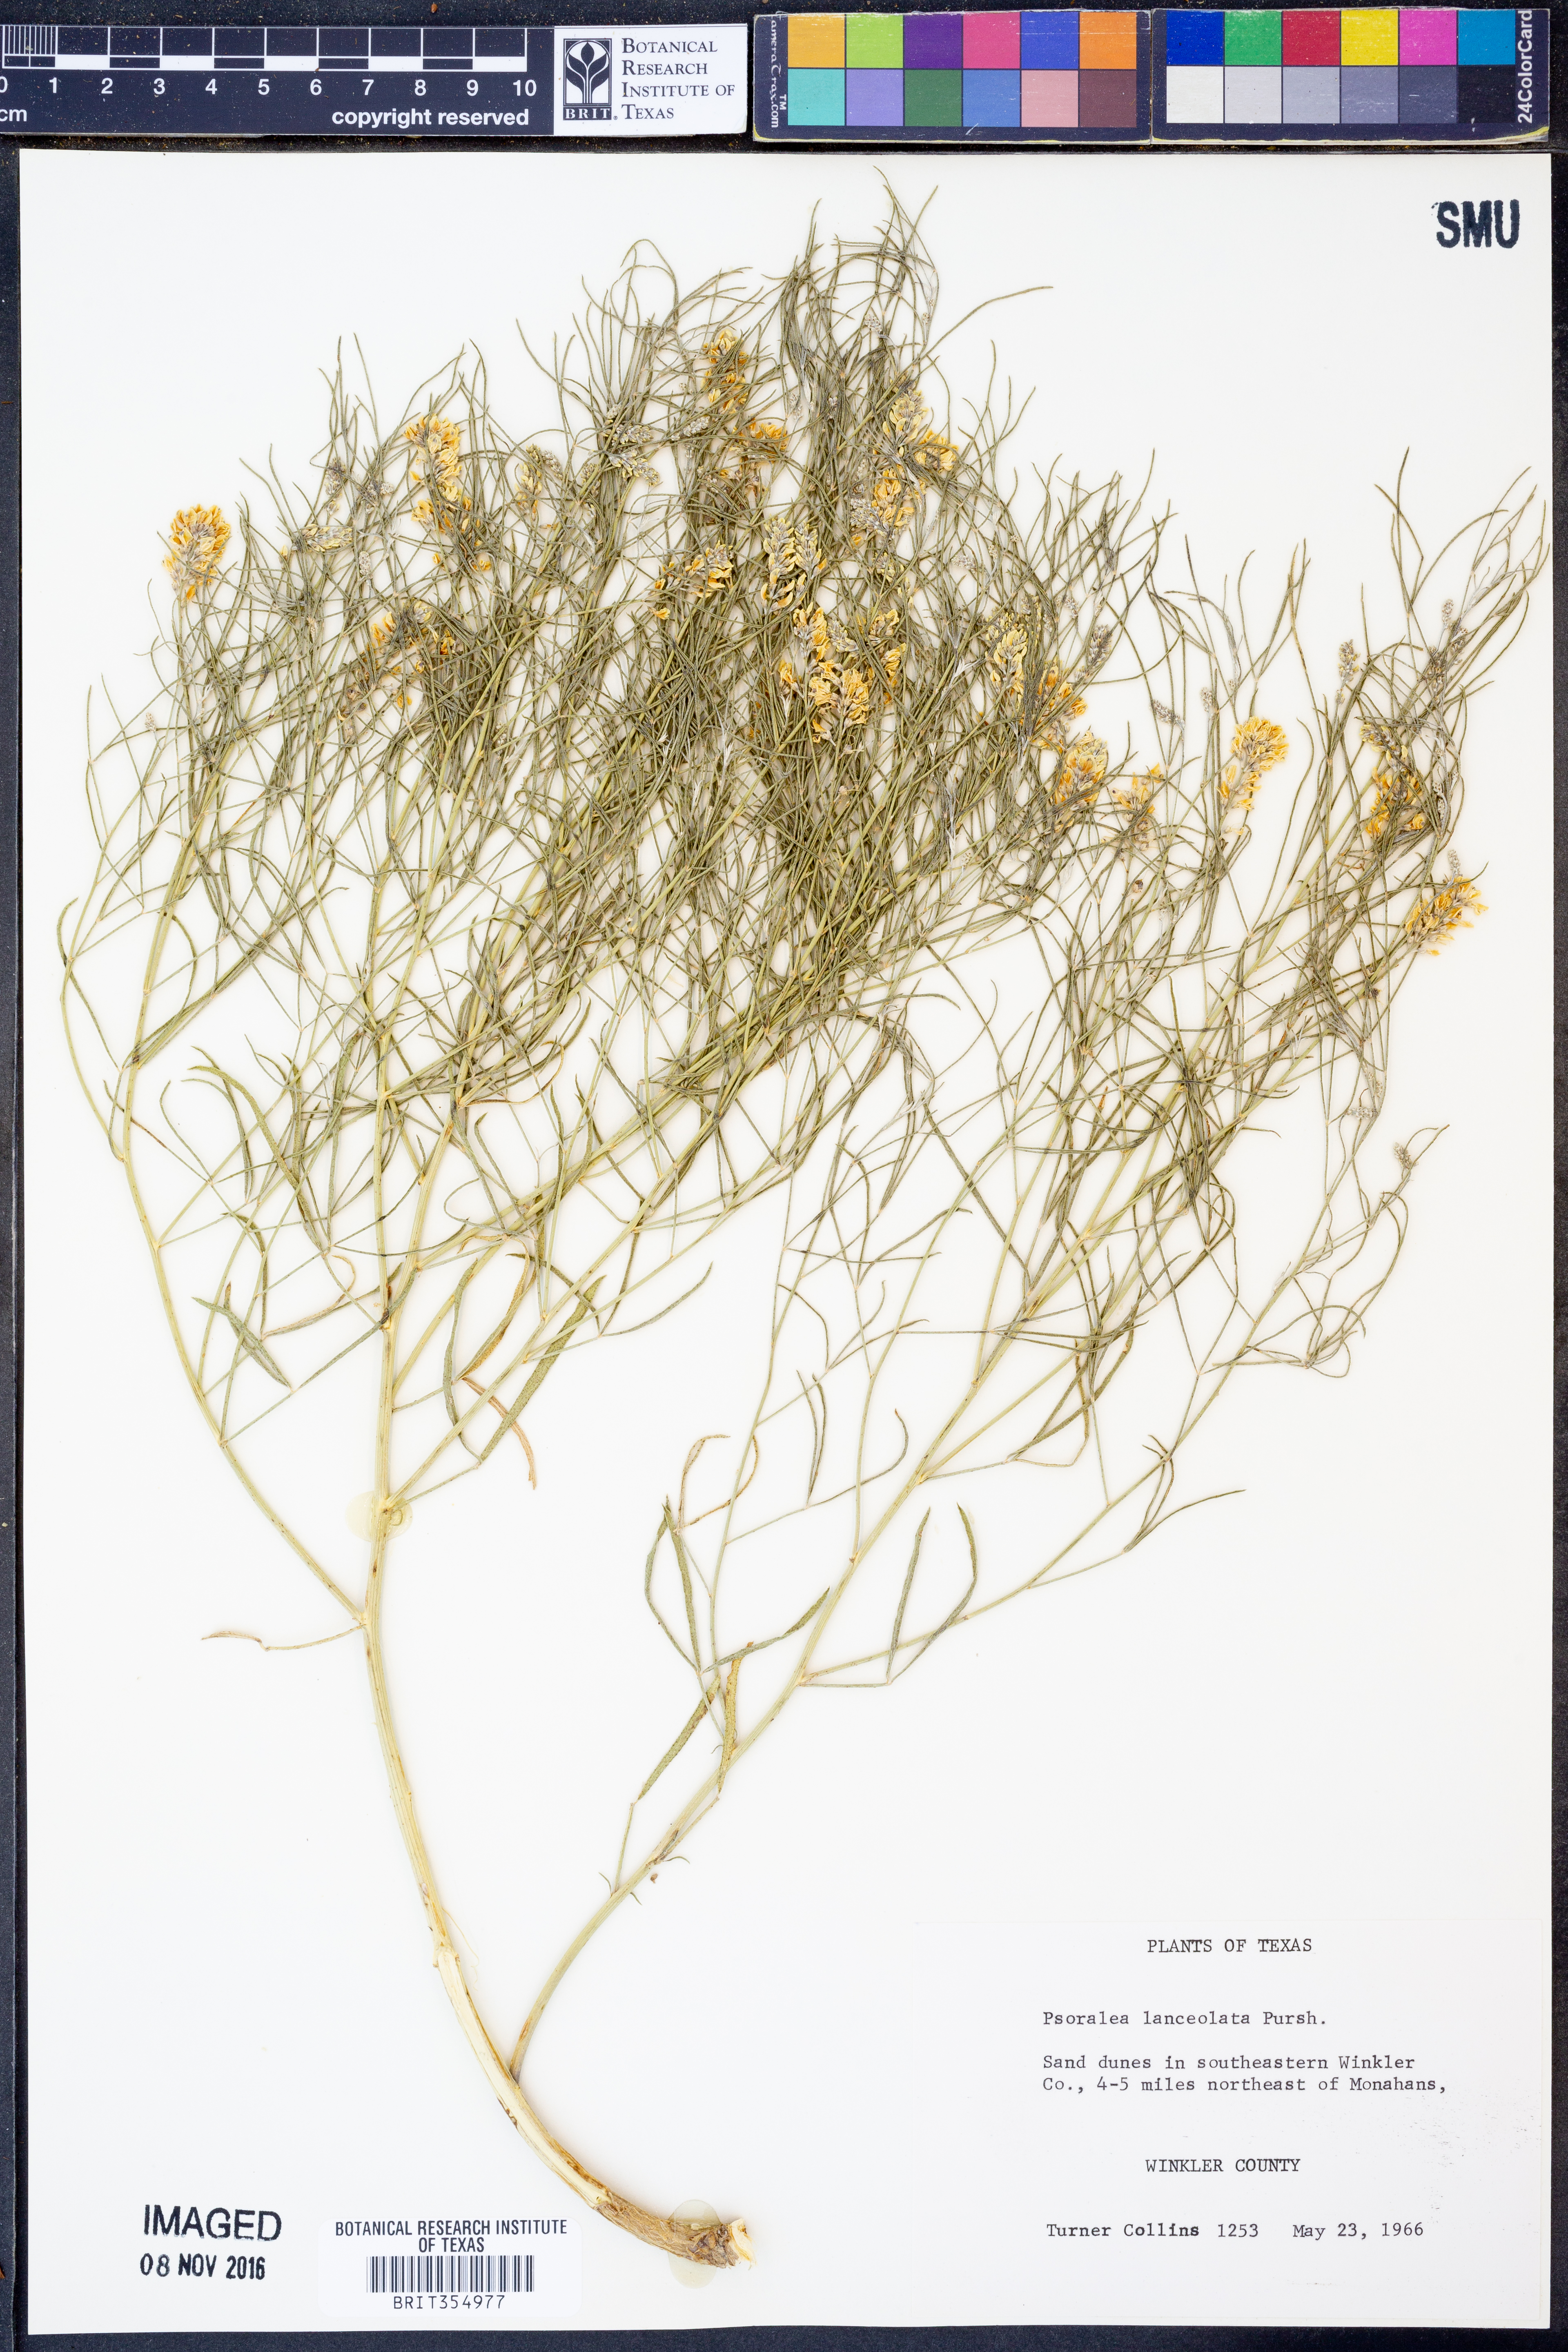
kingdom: Plantae
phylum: Tracheophyta
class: Magnoliopsida
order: Fabales
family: Fabaceae
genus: Ladeania
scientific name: Ladeania lanceolata
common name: Dune scurf-pea
